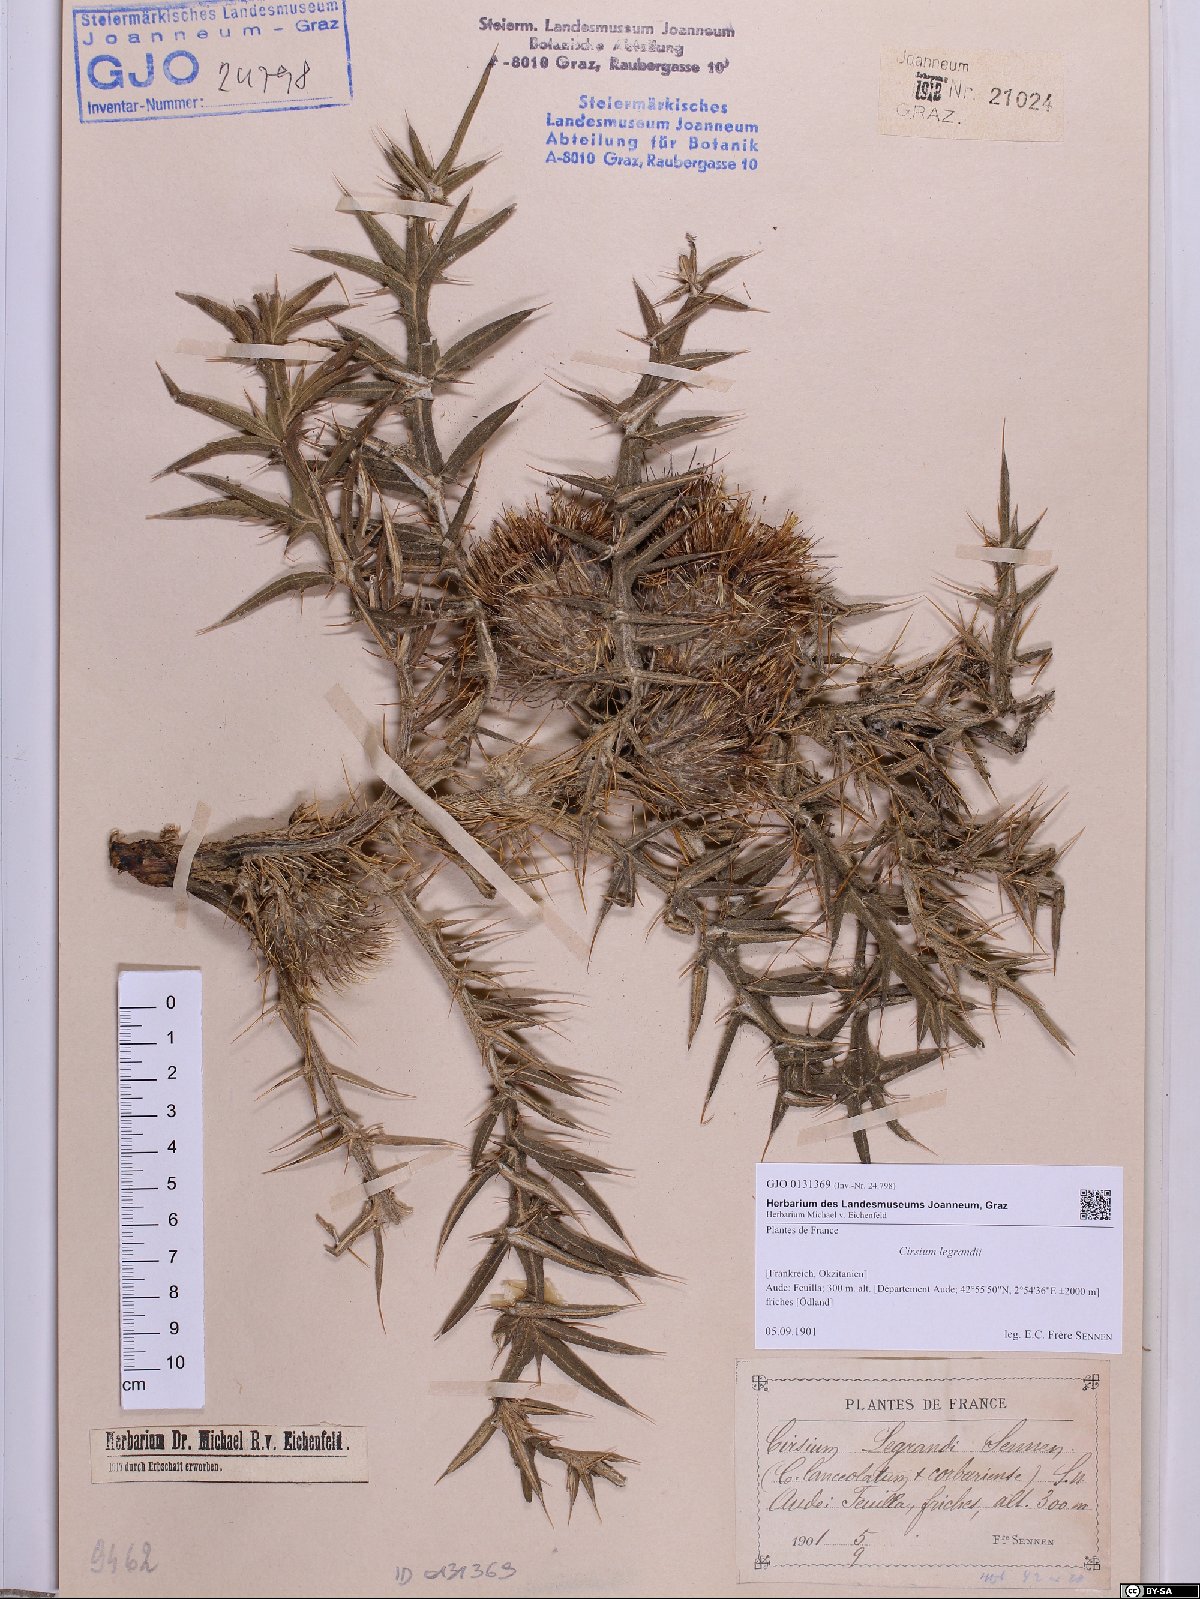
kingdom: Plantae
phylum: Tracheophyta
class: Magnoliopsida
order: Asterales
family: Asteraceae
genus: Lophiolepis
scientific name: Lophiolepis richteriana
